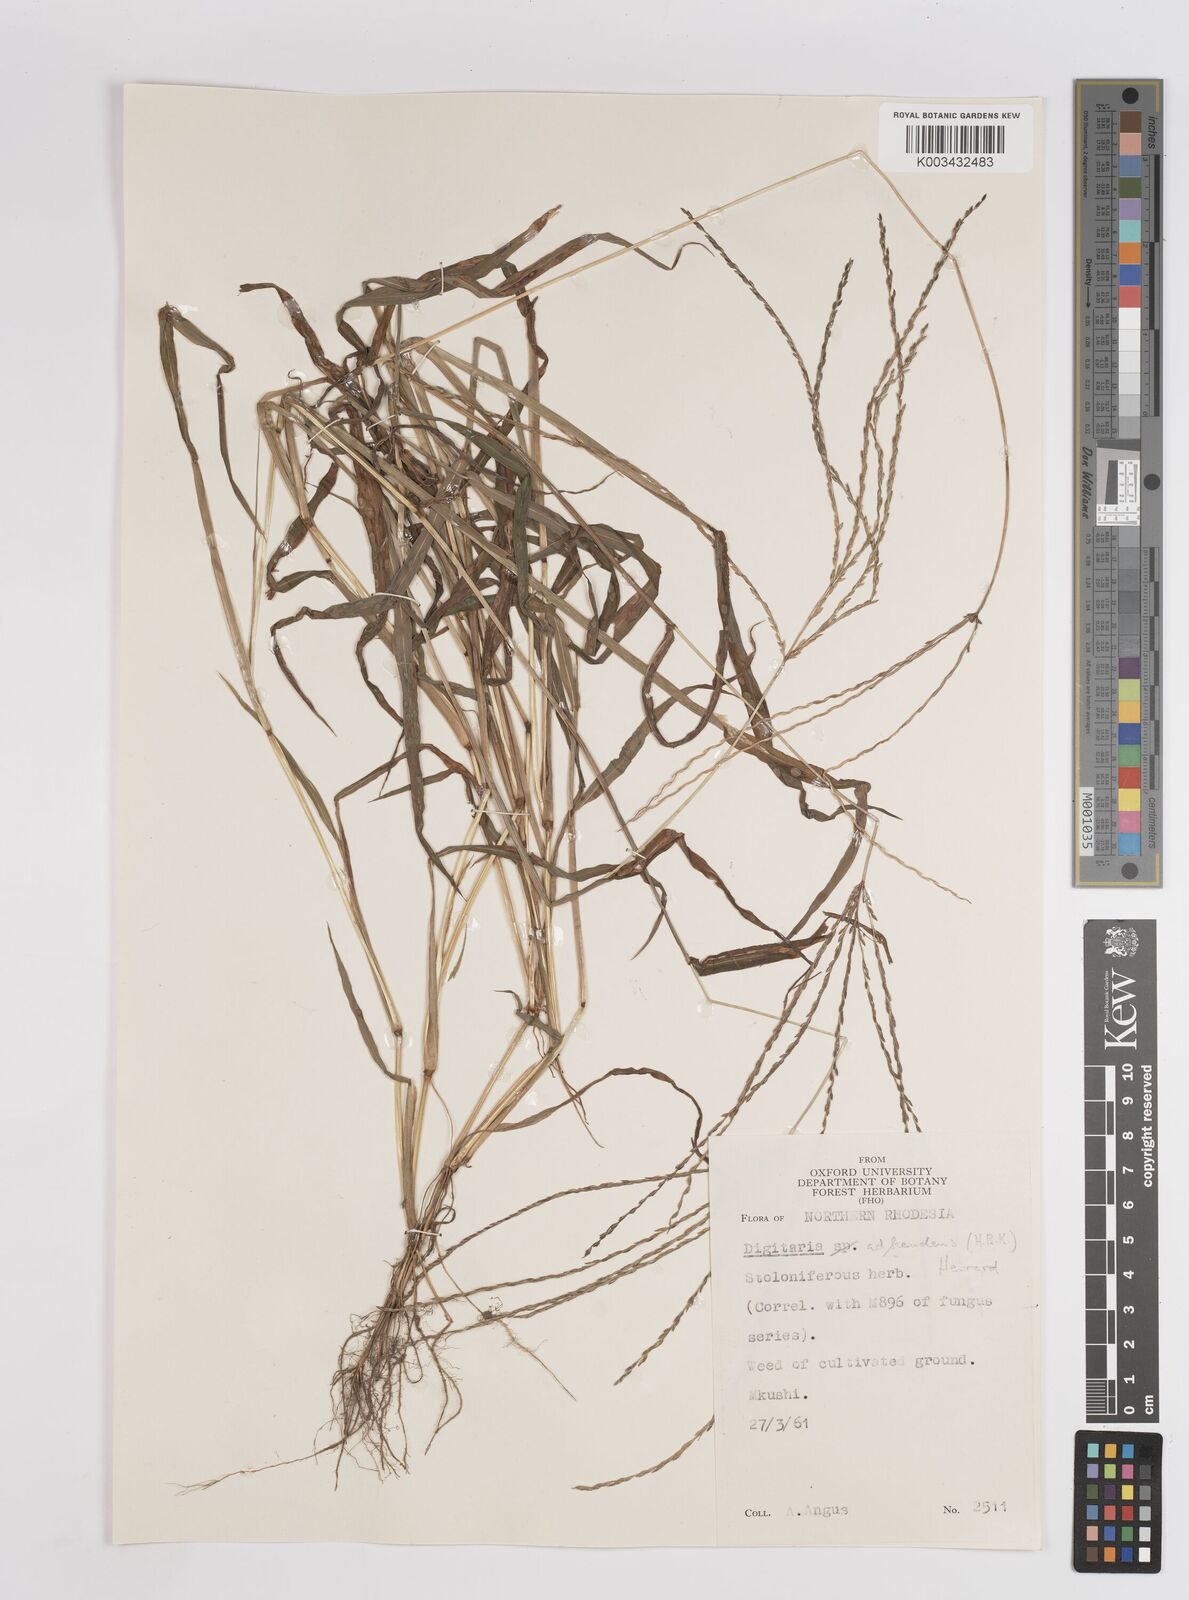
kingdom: Plantae
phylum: Tracheophyta
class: Liliopsida
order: Poales
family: Poaceae
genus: Digitaria
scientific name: Digitaria acuminatissima
